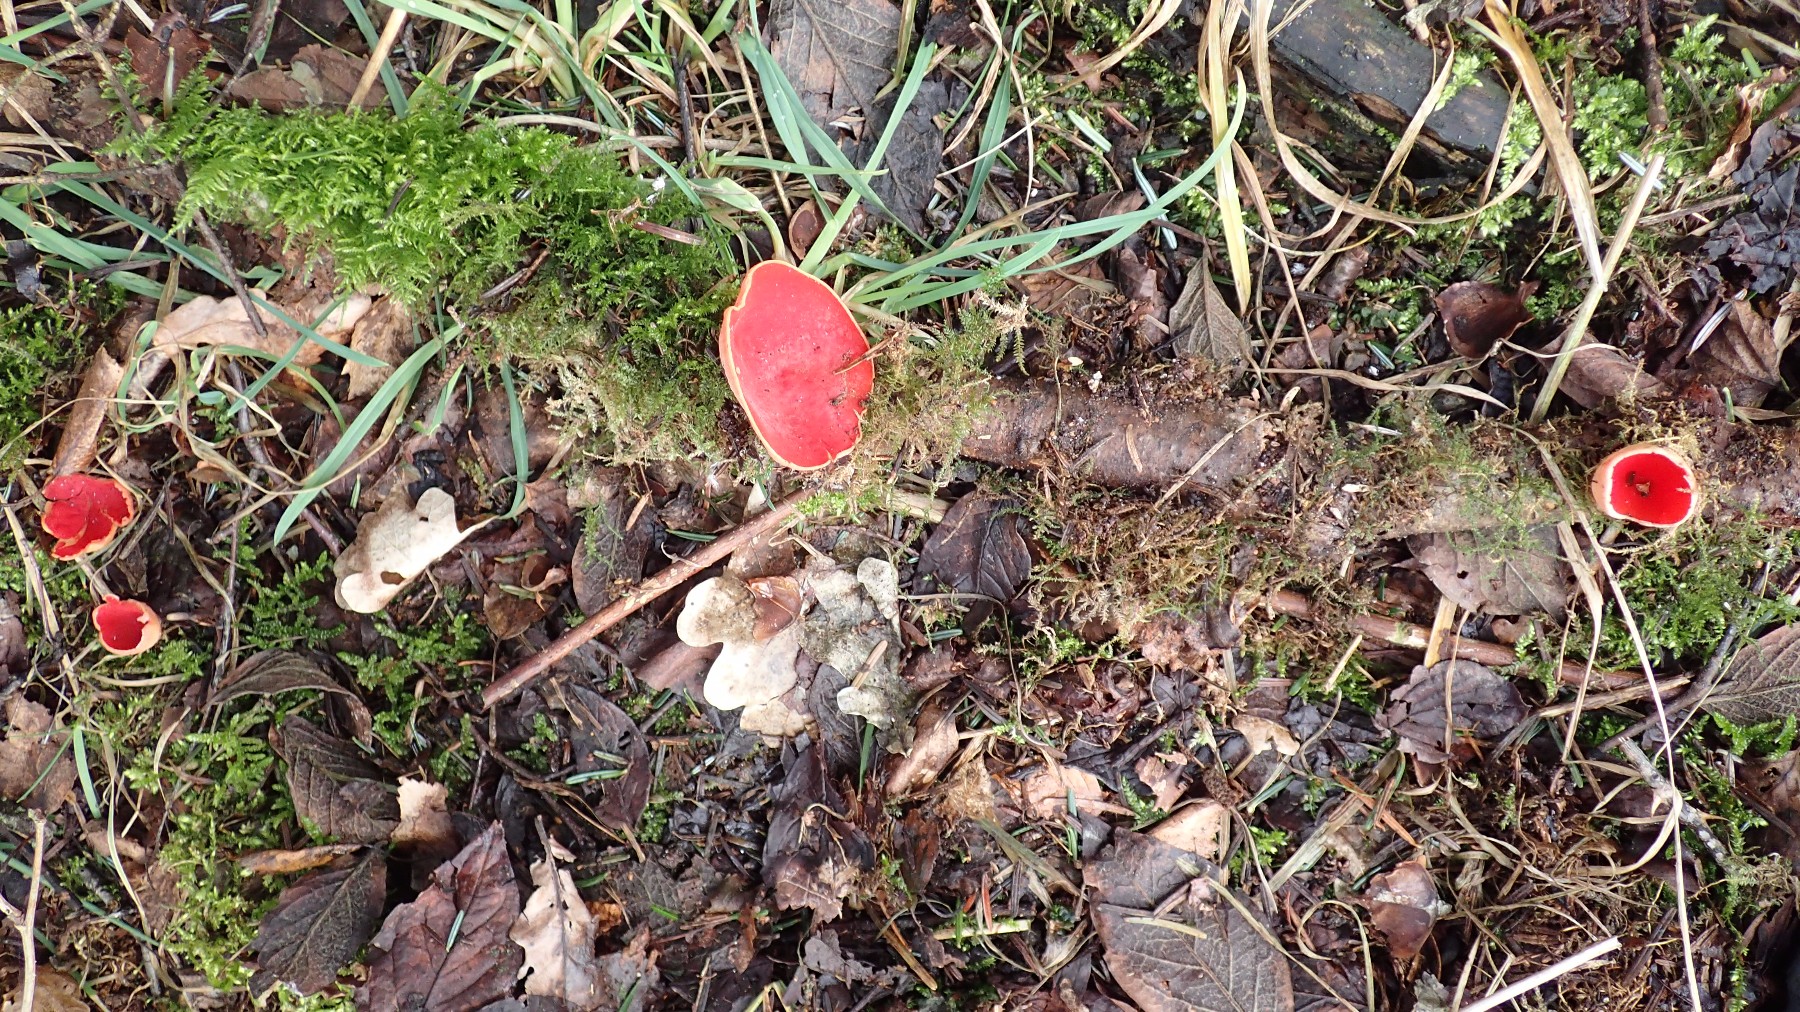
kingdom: Fungi
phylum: Ascomycota
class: Pezizomycetes
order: Pezizales
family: Sarcoscyphaceae
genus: Sarcoscypha
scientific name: Sarcoscypha austriaca
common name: krølhåret pragtbæger
